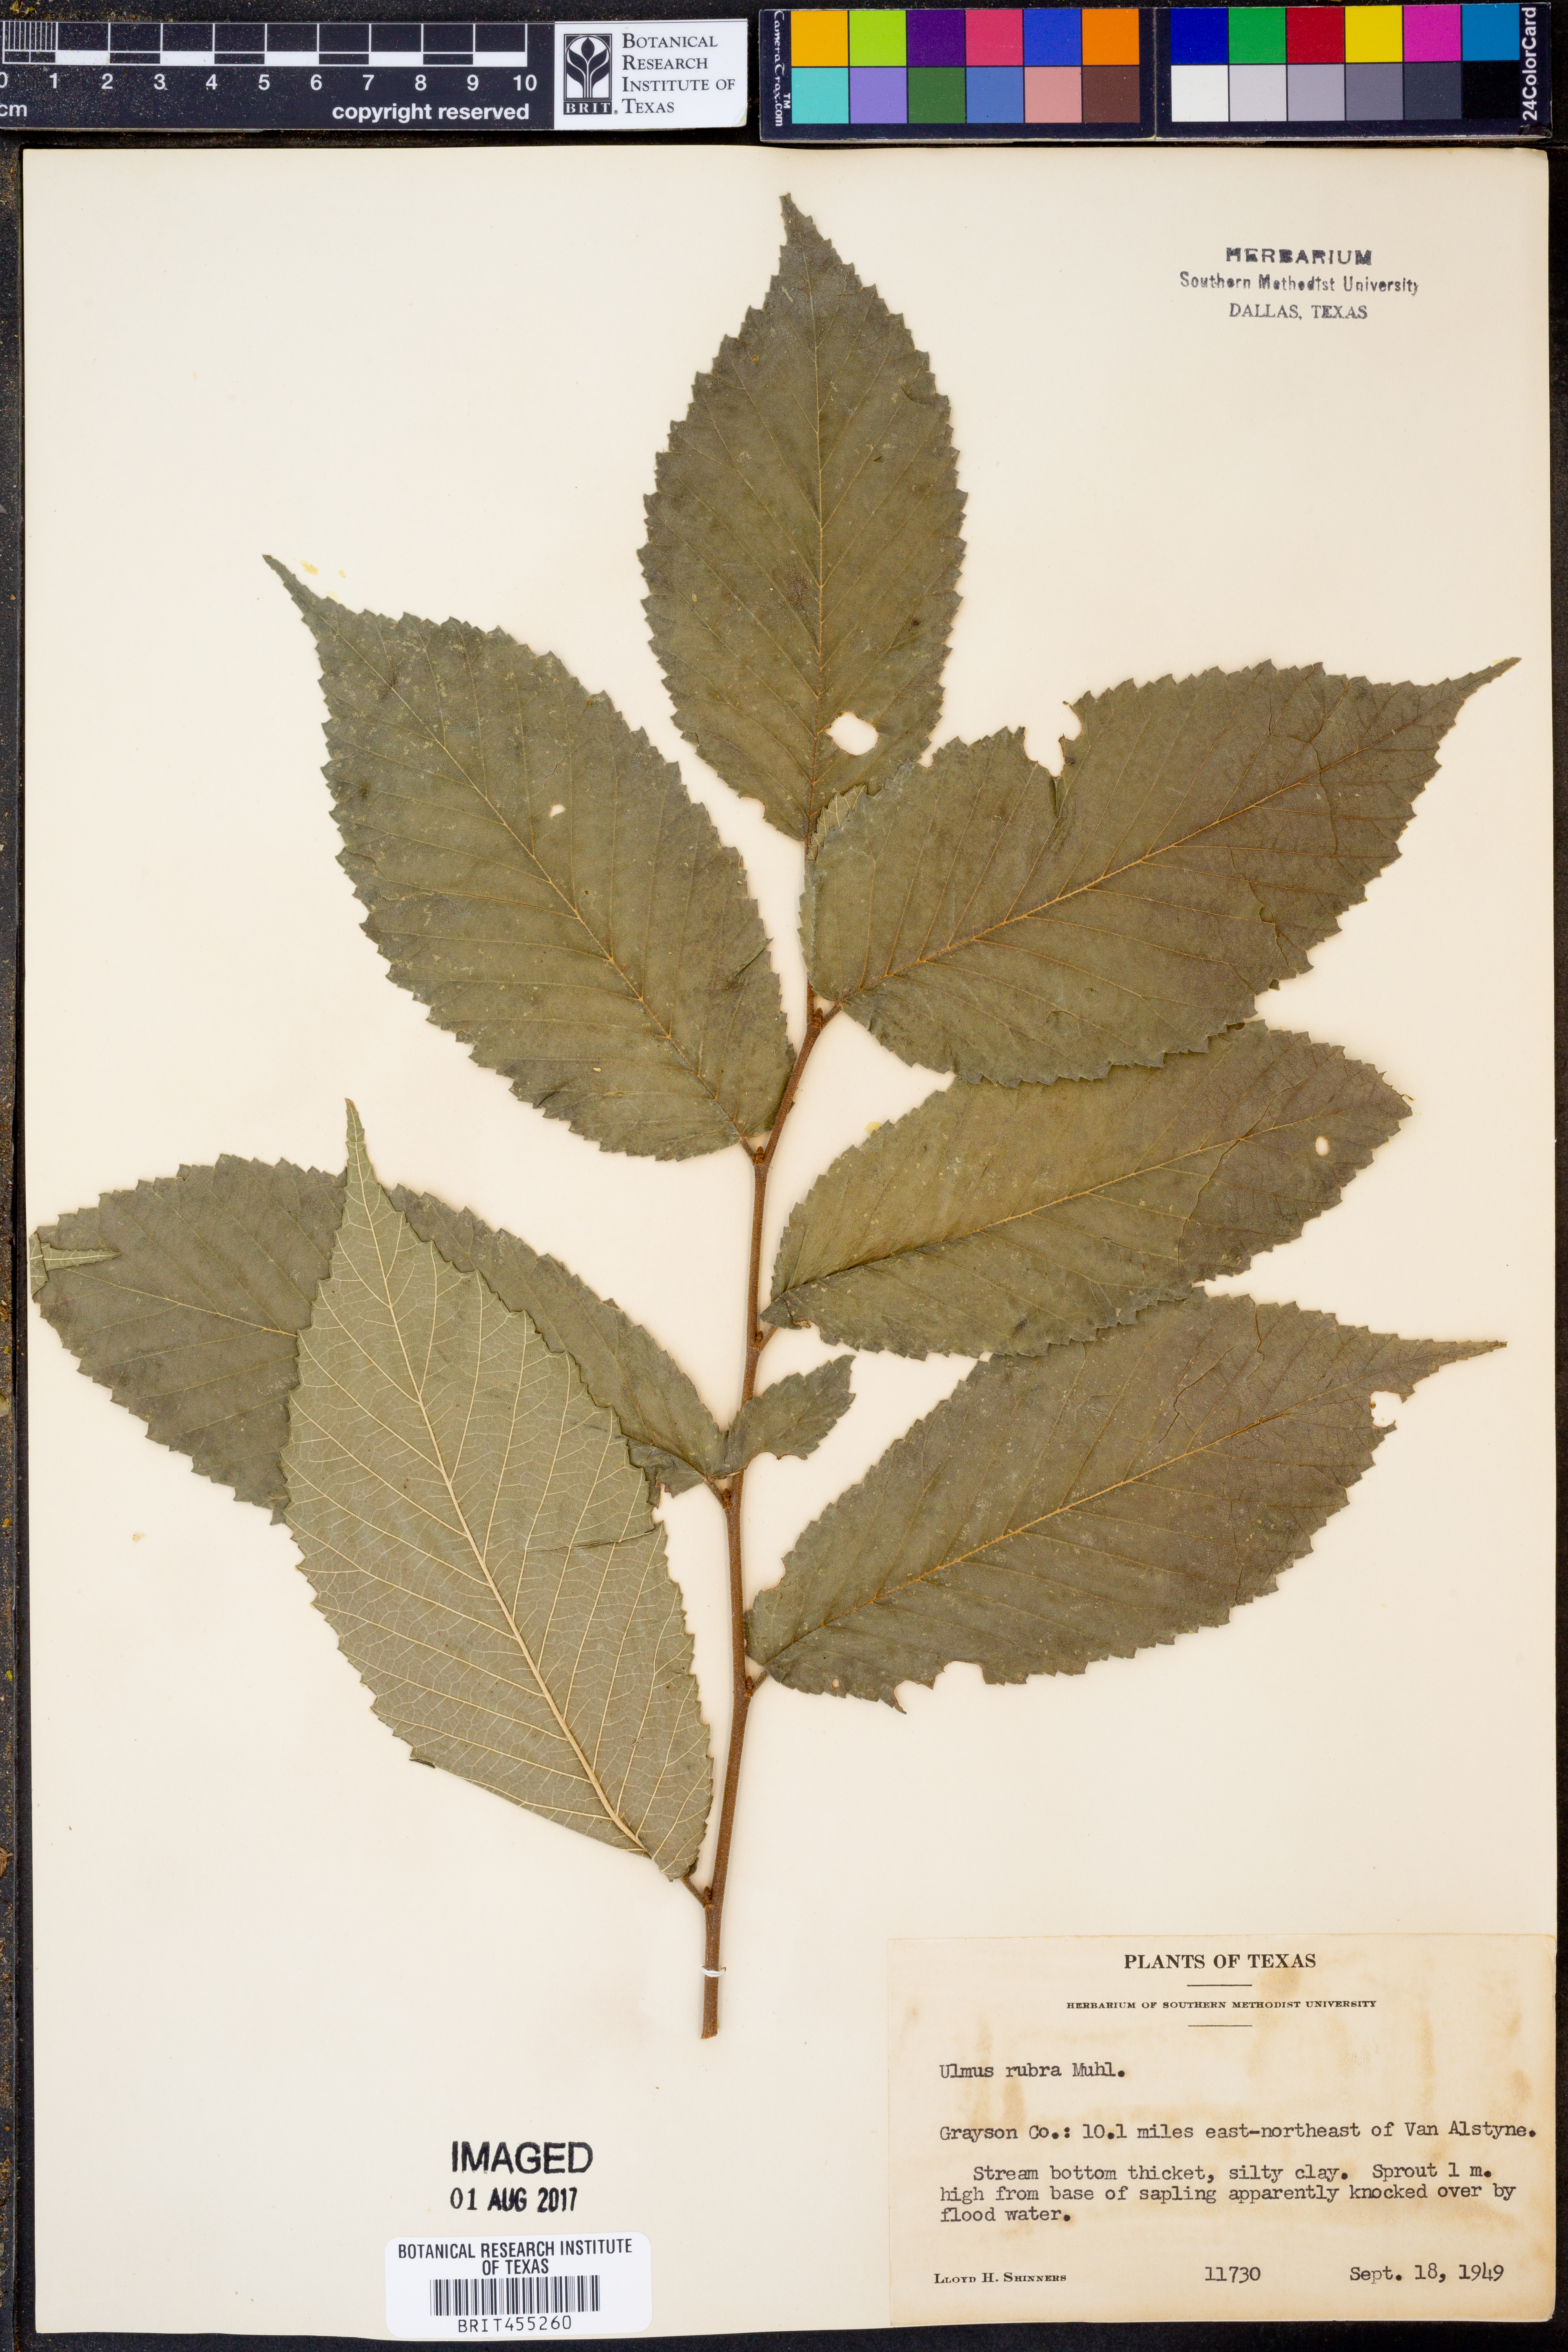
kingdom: Plantae
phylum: Tracheophyta
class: Magnoliopsida
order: Rosales
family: Ulmaceae
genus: Ulmus
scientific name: Ulmus rubra
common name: Slippery elm
